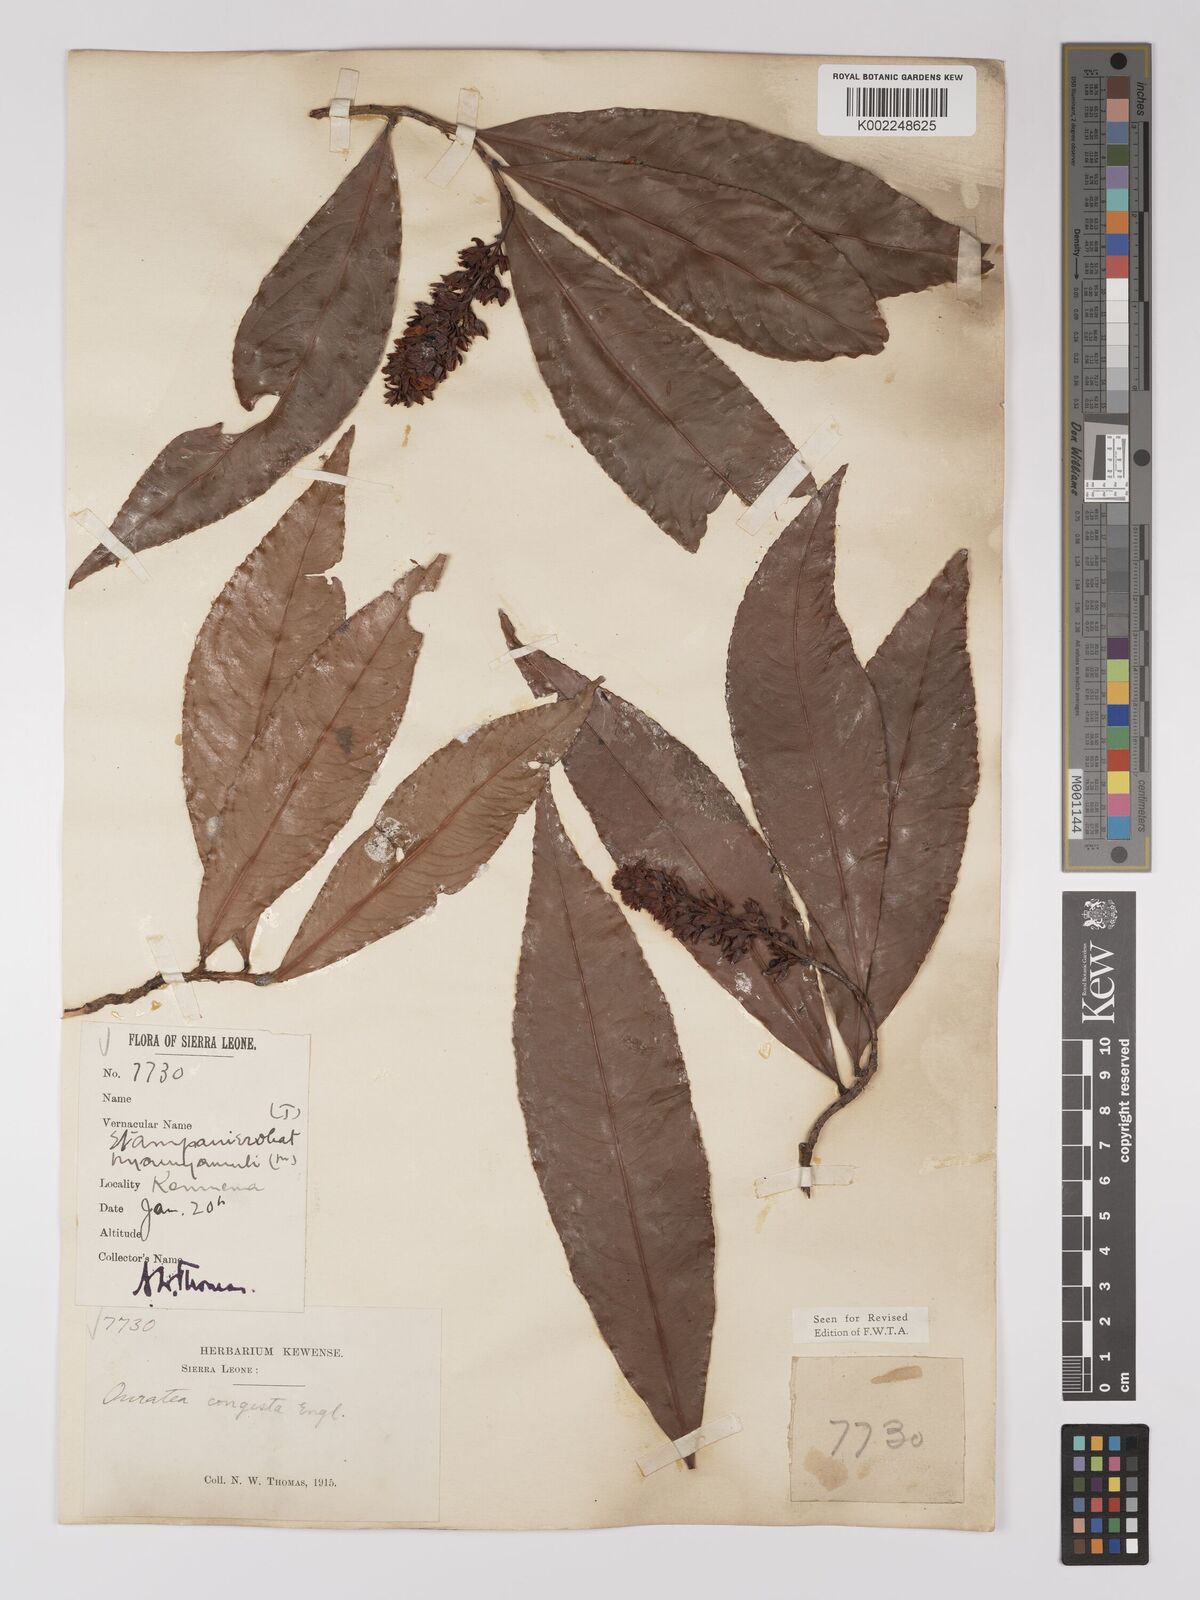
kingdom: Plantae
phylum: Tracheophyta
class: Magnoliopsida
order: Malpighiales
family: Ochnaceae
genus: Campylospermum
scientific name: Campylospermum congestum
